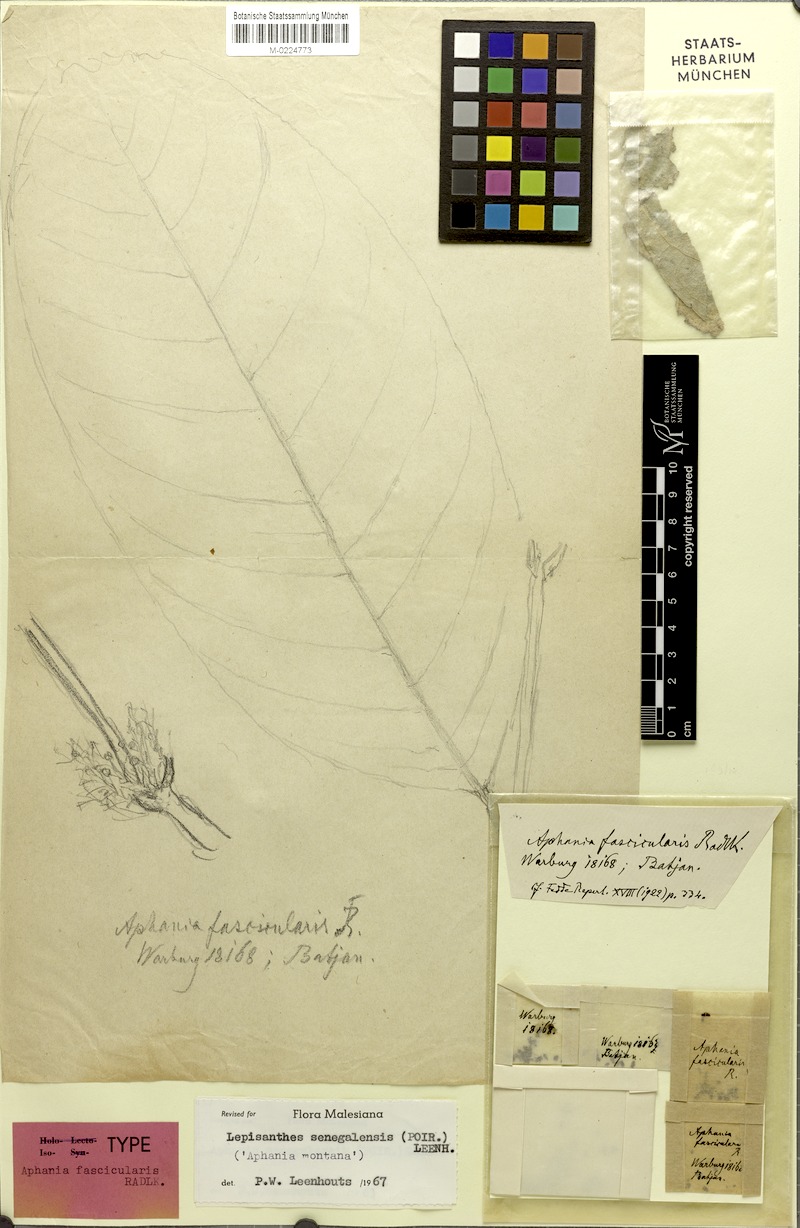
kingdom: Plantae
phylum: Tracheophyta
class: Magnoliopsida
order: Sapindales
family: Sapindaceae
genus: Lepisanthes
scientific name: Lepisanthes senegalensis
